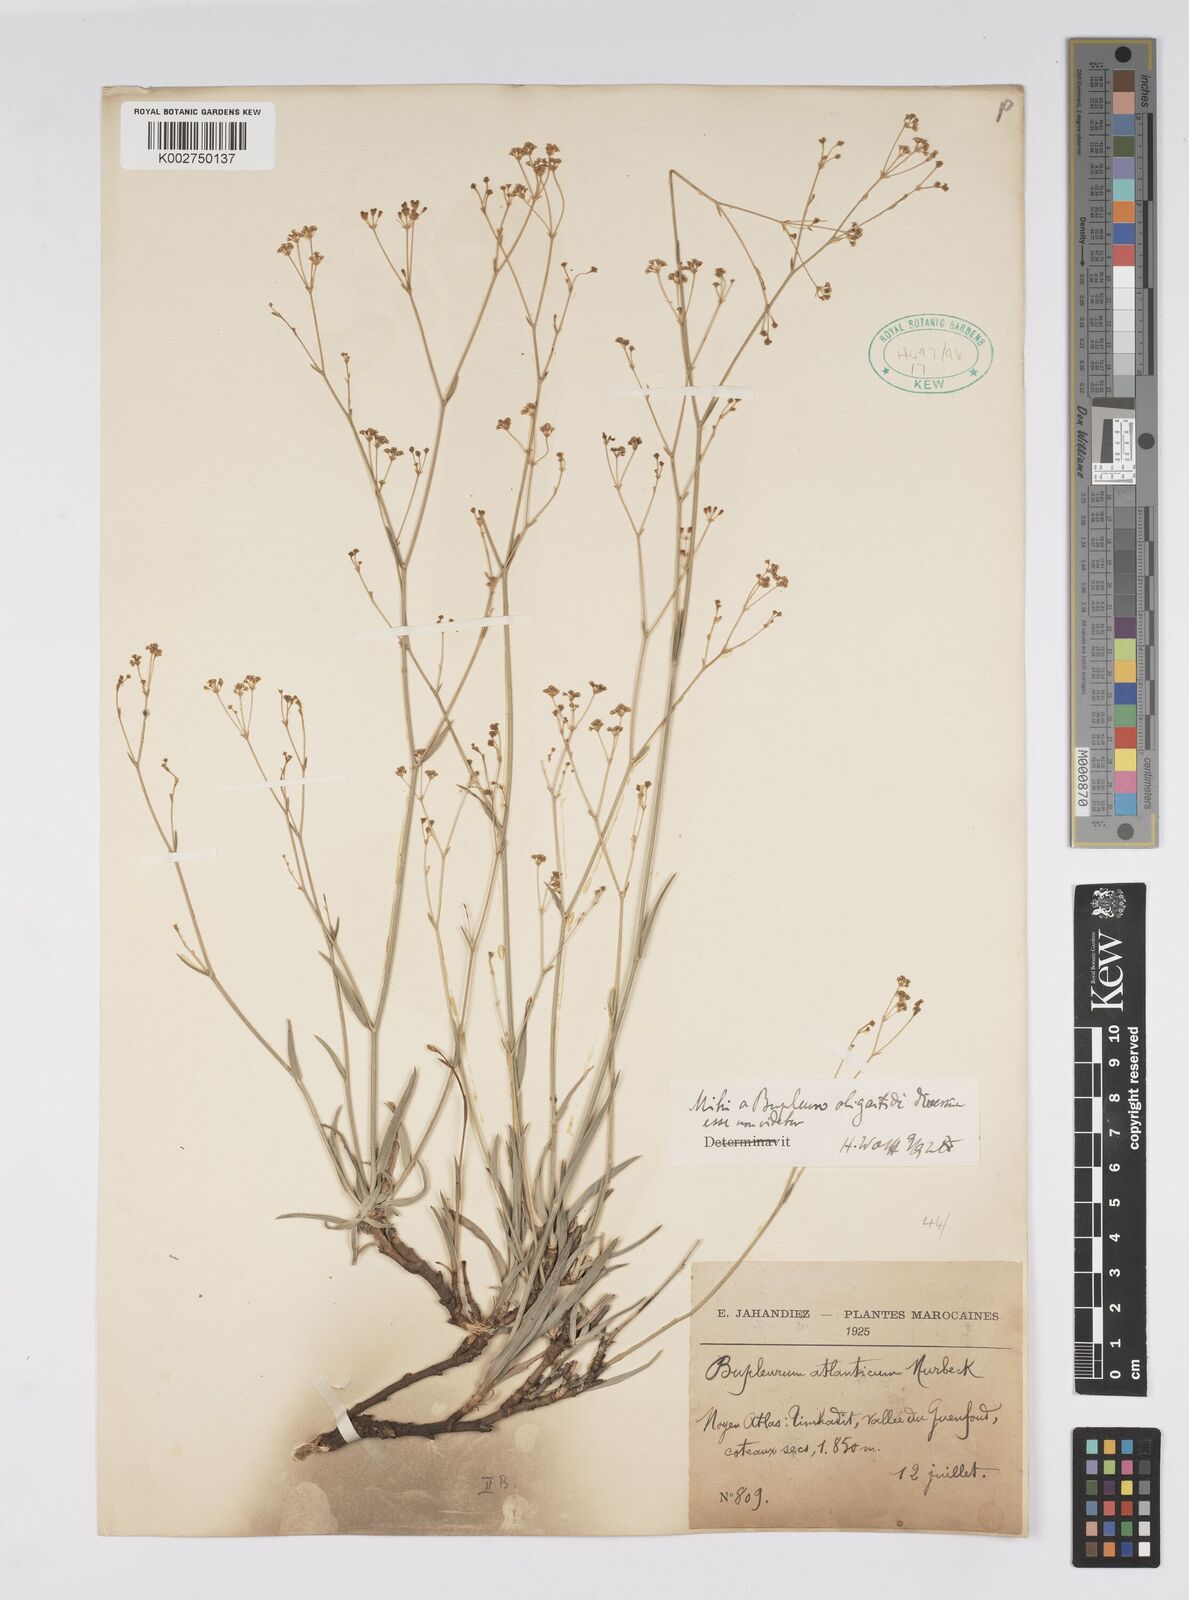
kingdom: Plantae
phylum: Tracheophyta
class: Magnoliopsida
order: Apiales
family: Apiaceae
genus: Bupleurum
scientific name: Bupleurum oligactis
